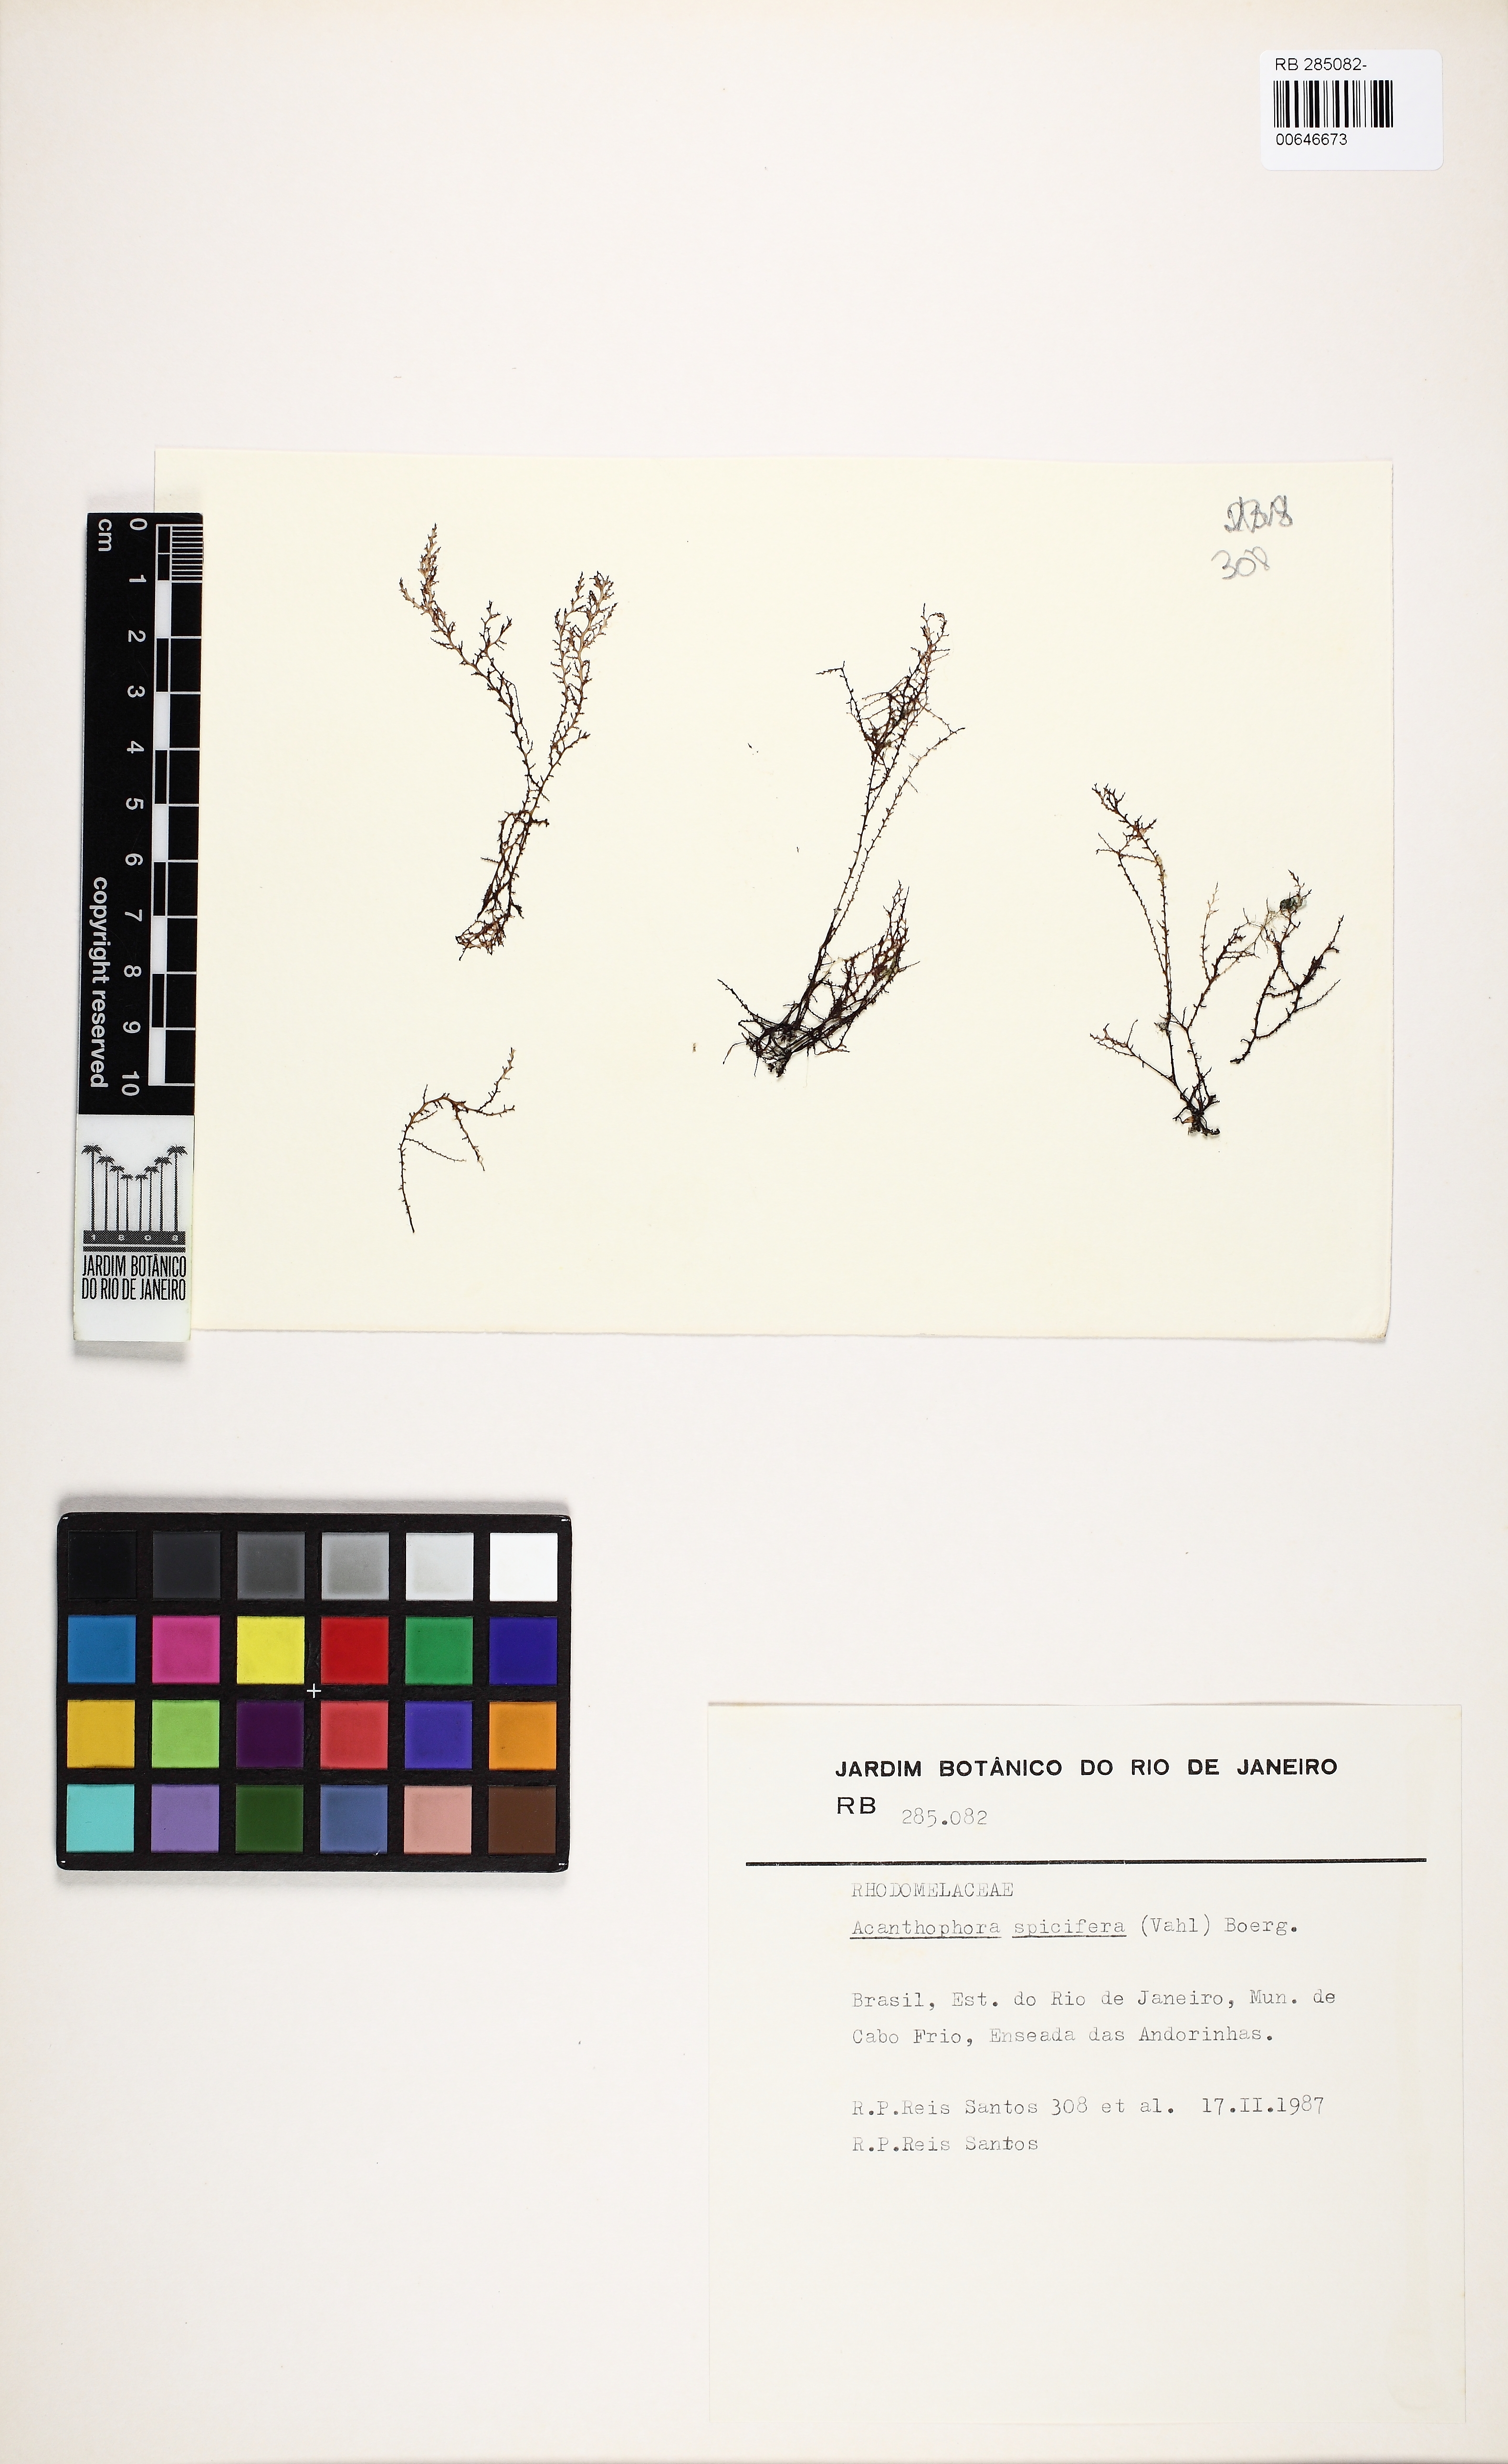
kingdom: Plantae
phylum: Rhodophyta
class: Florideophyceae
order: Ceramiales
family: Rhodomelaceae
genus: Acanthophora
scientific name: Acanthophora spicifera
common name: Red algae
